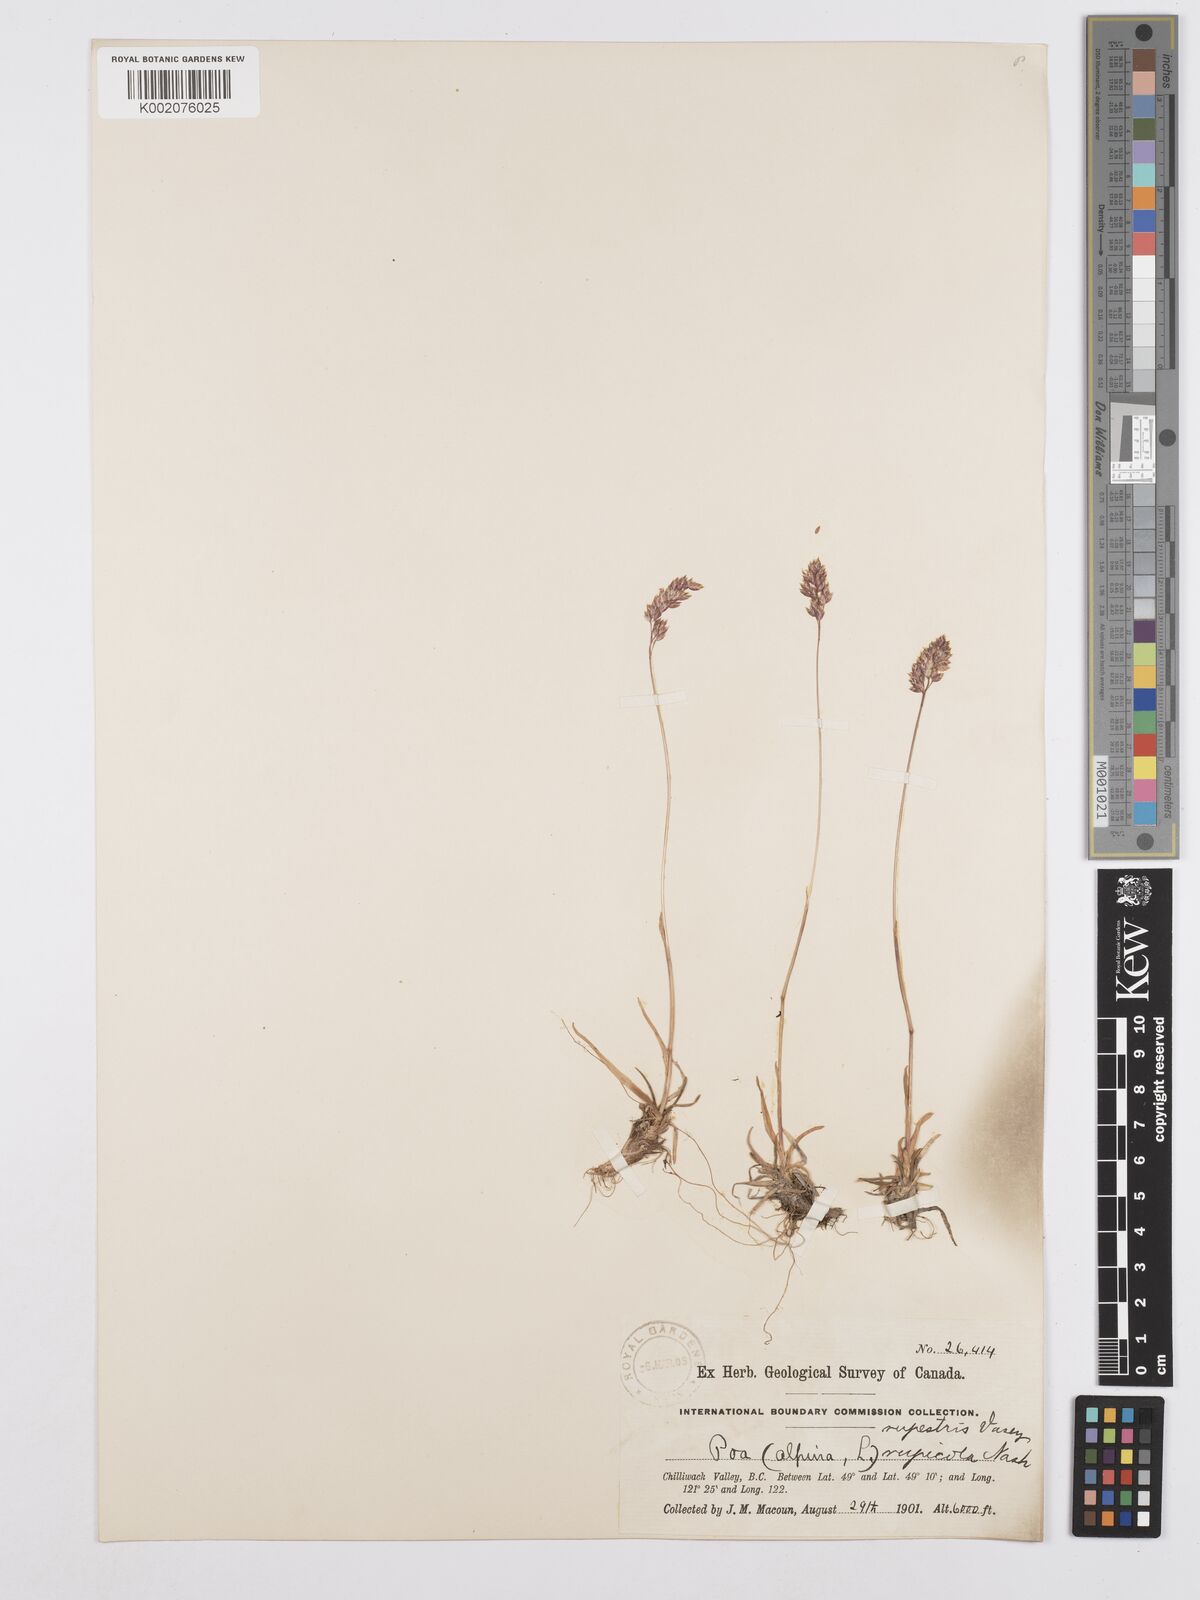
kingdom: Plantae
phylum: Tracheophyta
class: Liliopsida
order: Poales
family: Poaceae
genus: Poa
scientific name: Poa alpina
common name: Alpine bluegrass
